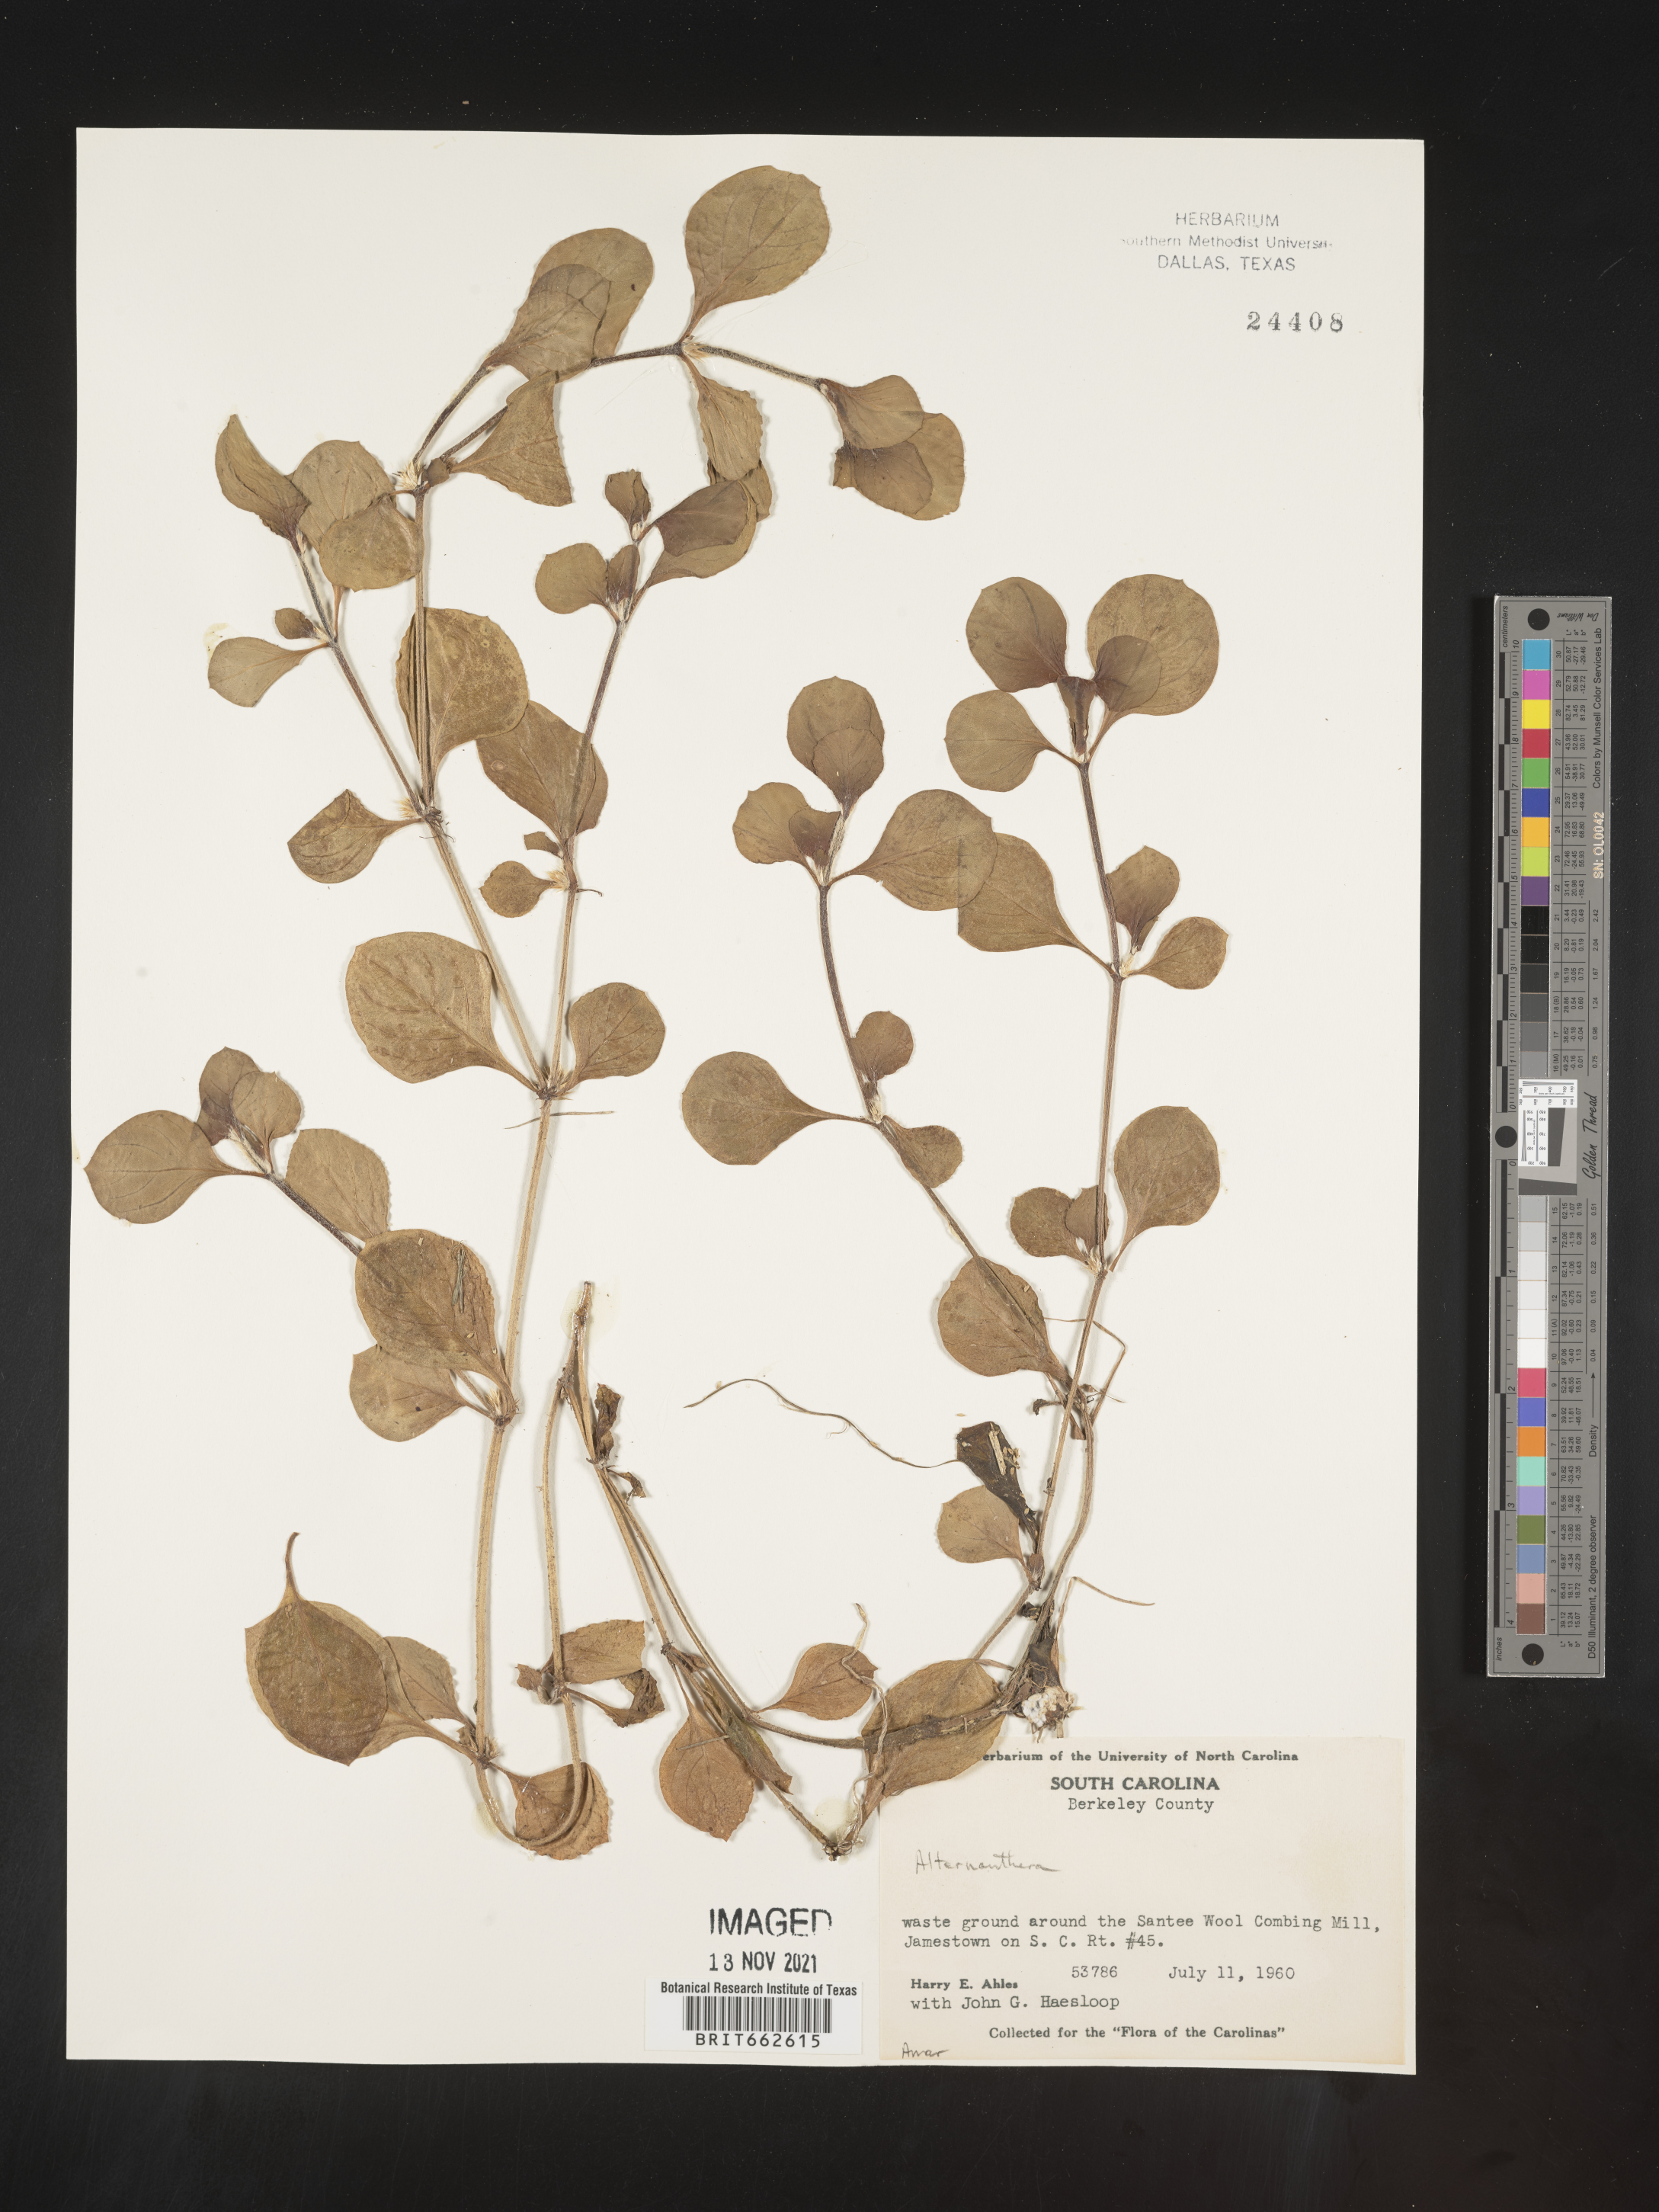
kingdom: Plantae
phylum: Tracheophyta
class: Magnoliopsida
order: Caryophyllales
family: Amaranthaceae
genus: Alternanthera
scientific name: Alternanthera
